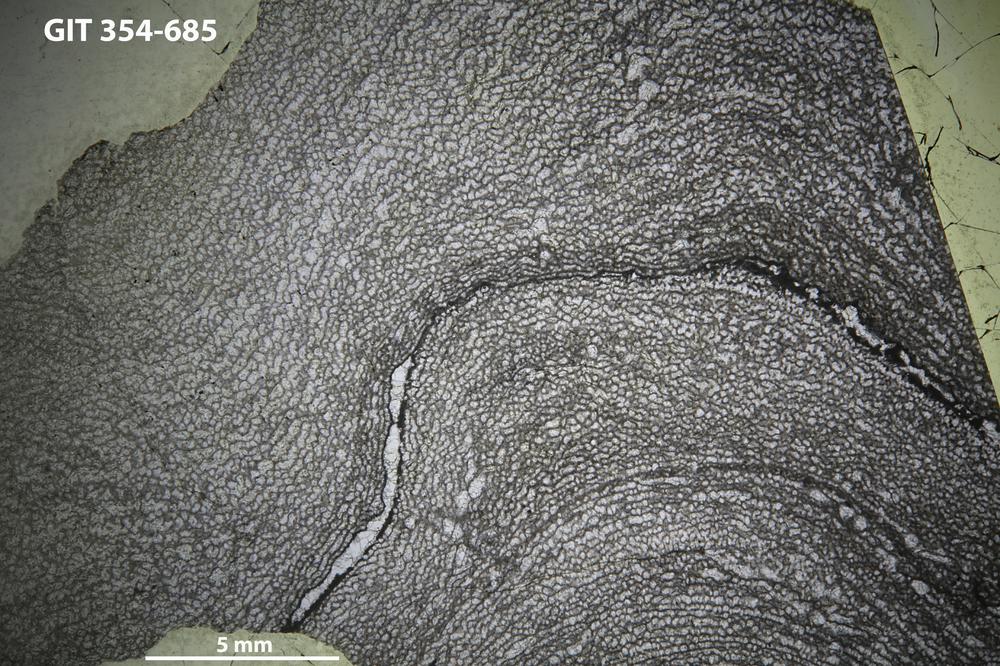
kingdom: Animalia
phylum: Porifera
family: Ecclimadictyidae
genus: Ecclimadictyon
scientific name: Ecclimadictyon
